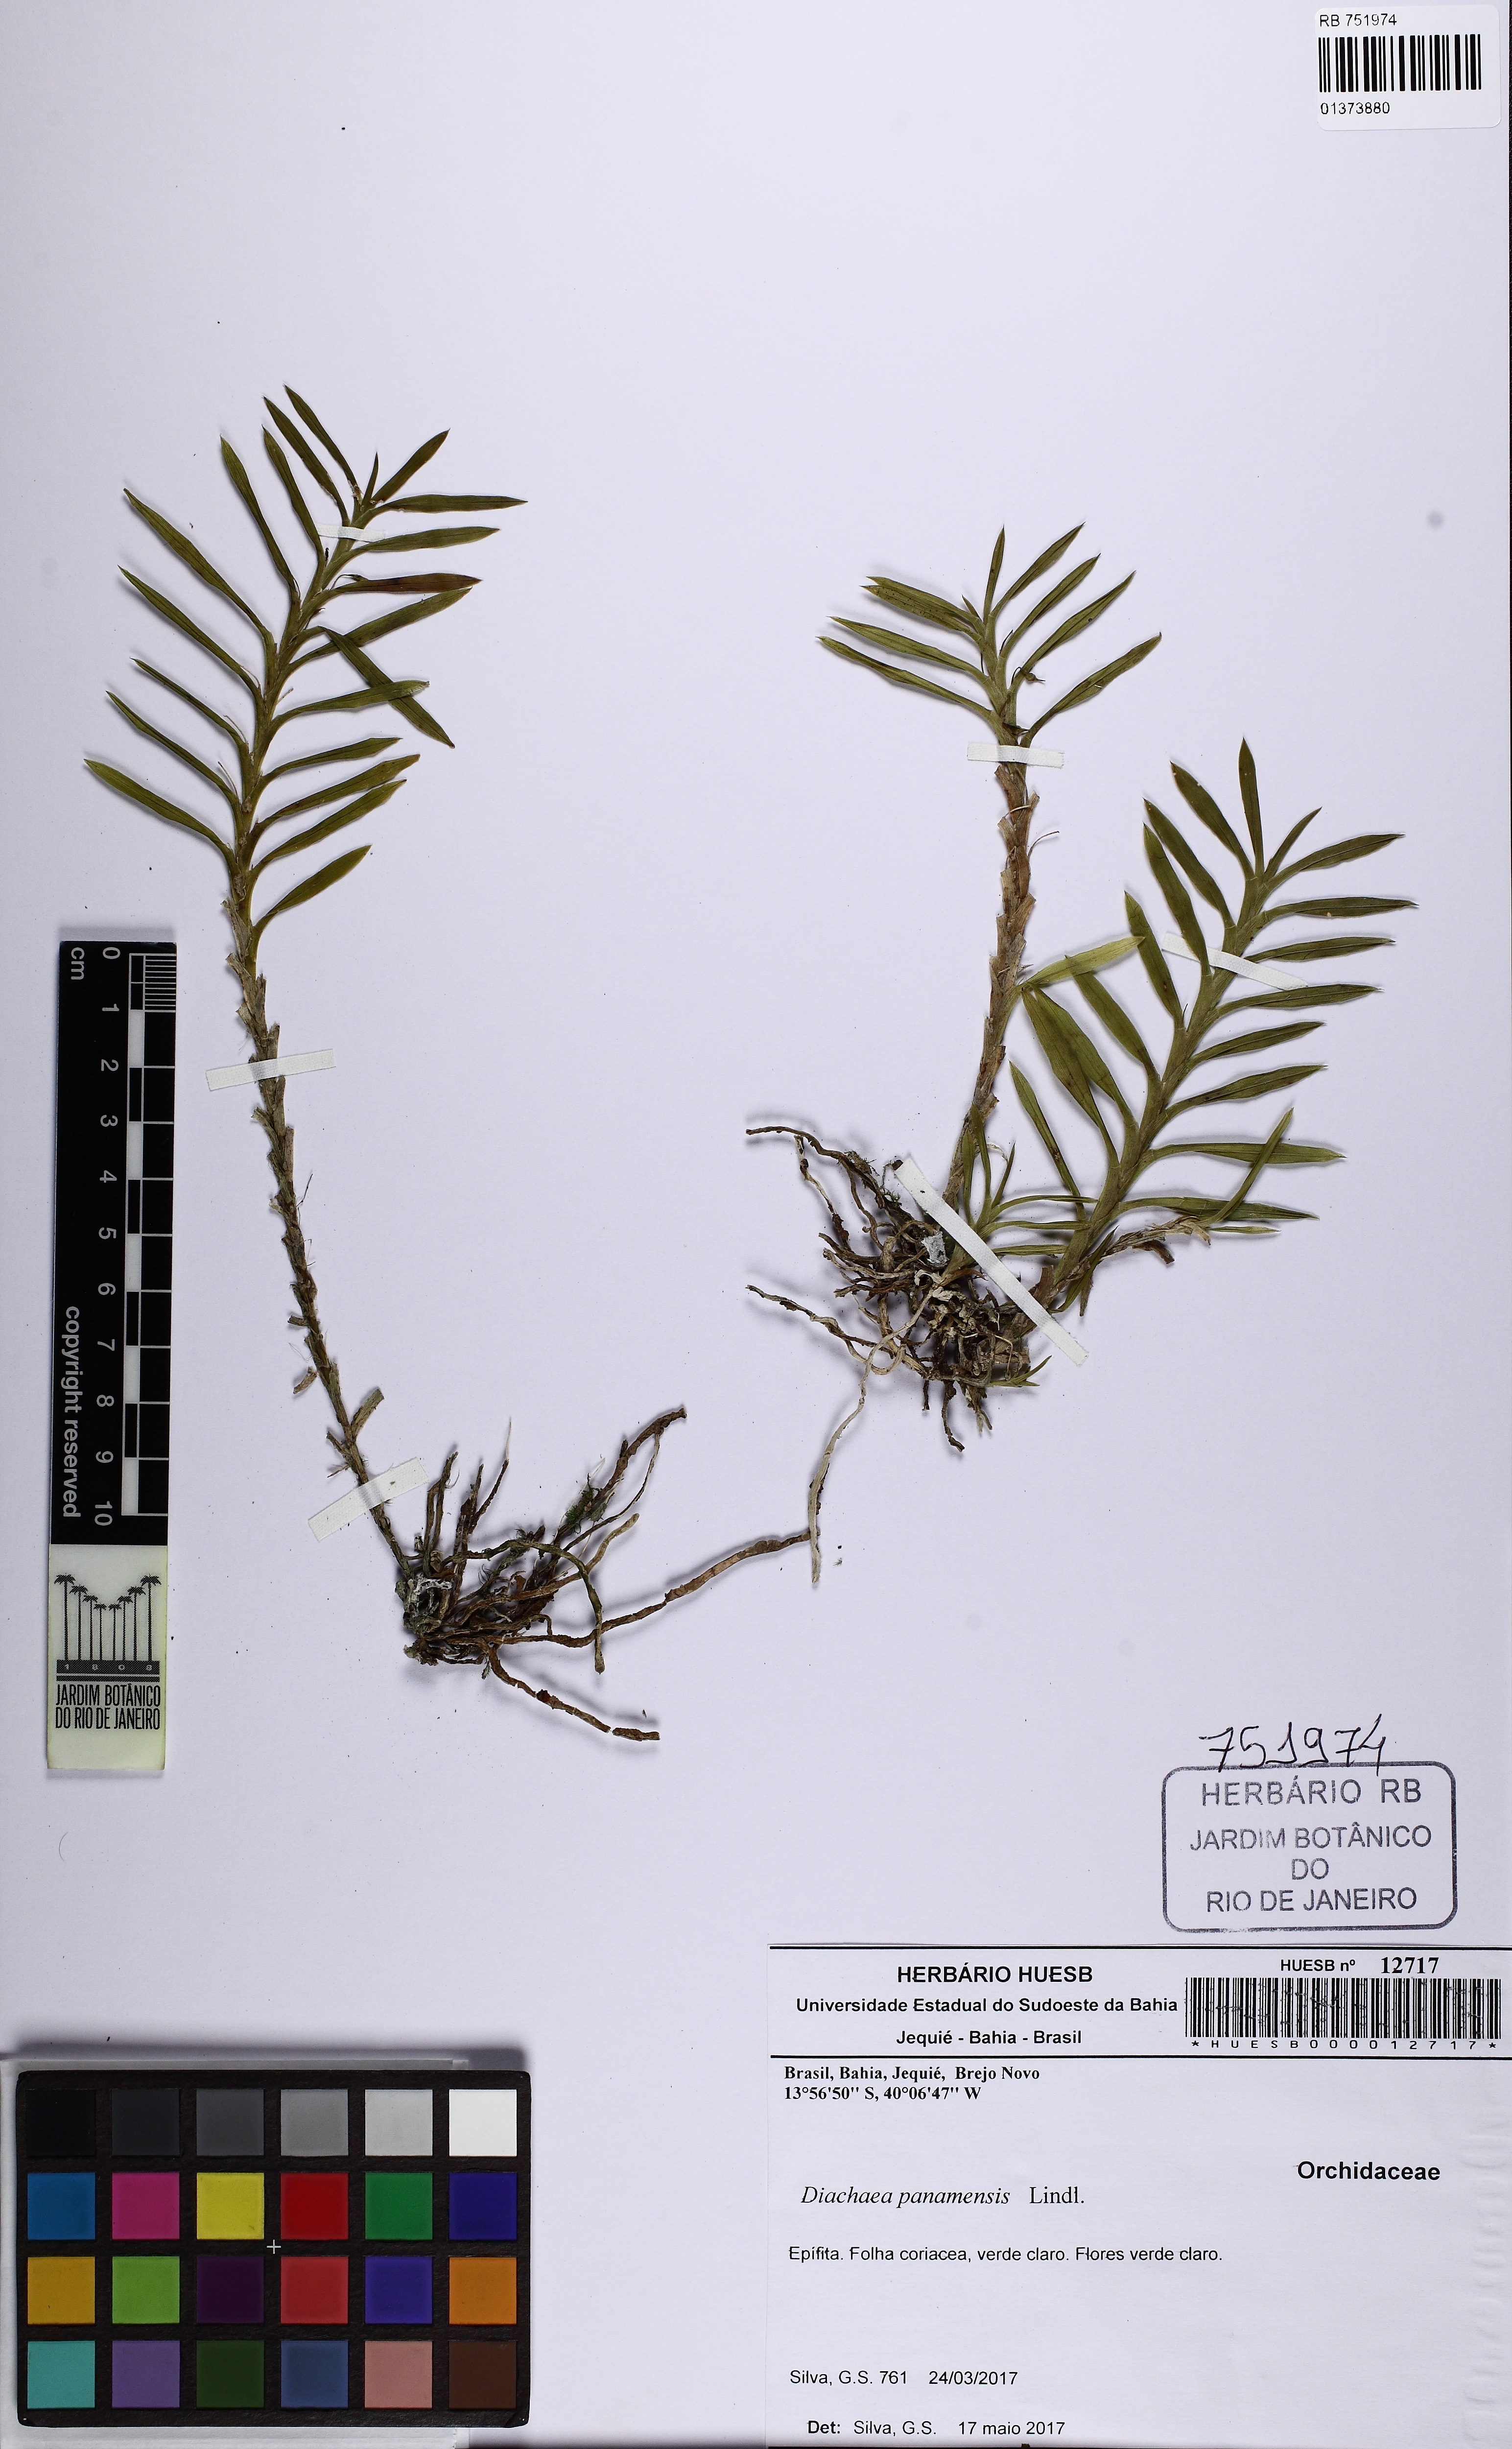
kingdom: Plantae
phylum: Tracheophyta
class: Liliopsida
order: Asparagales
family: Orchidaceae
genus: Dichaea
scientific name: Dichaea panamensis
